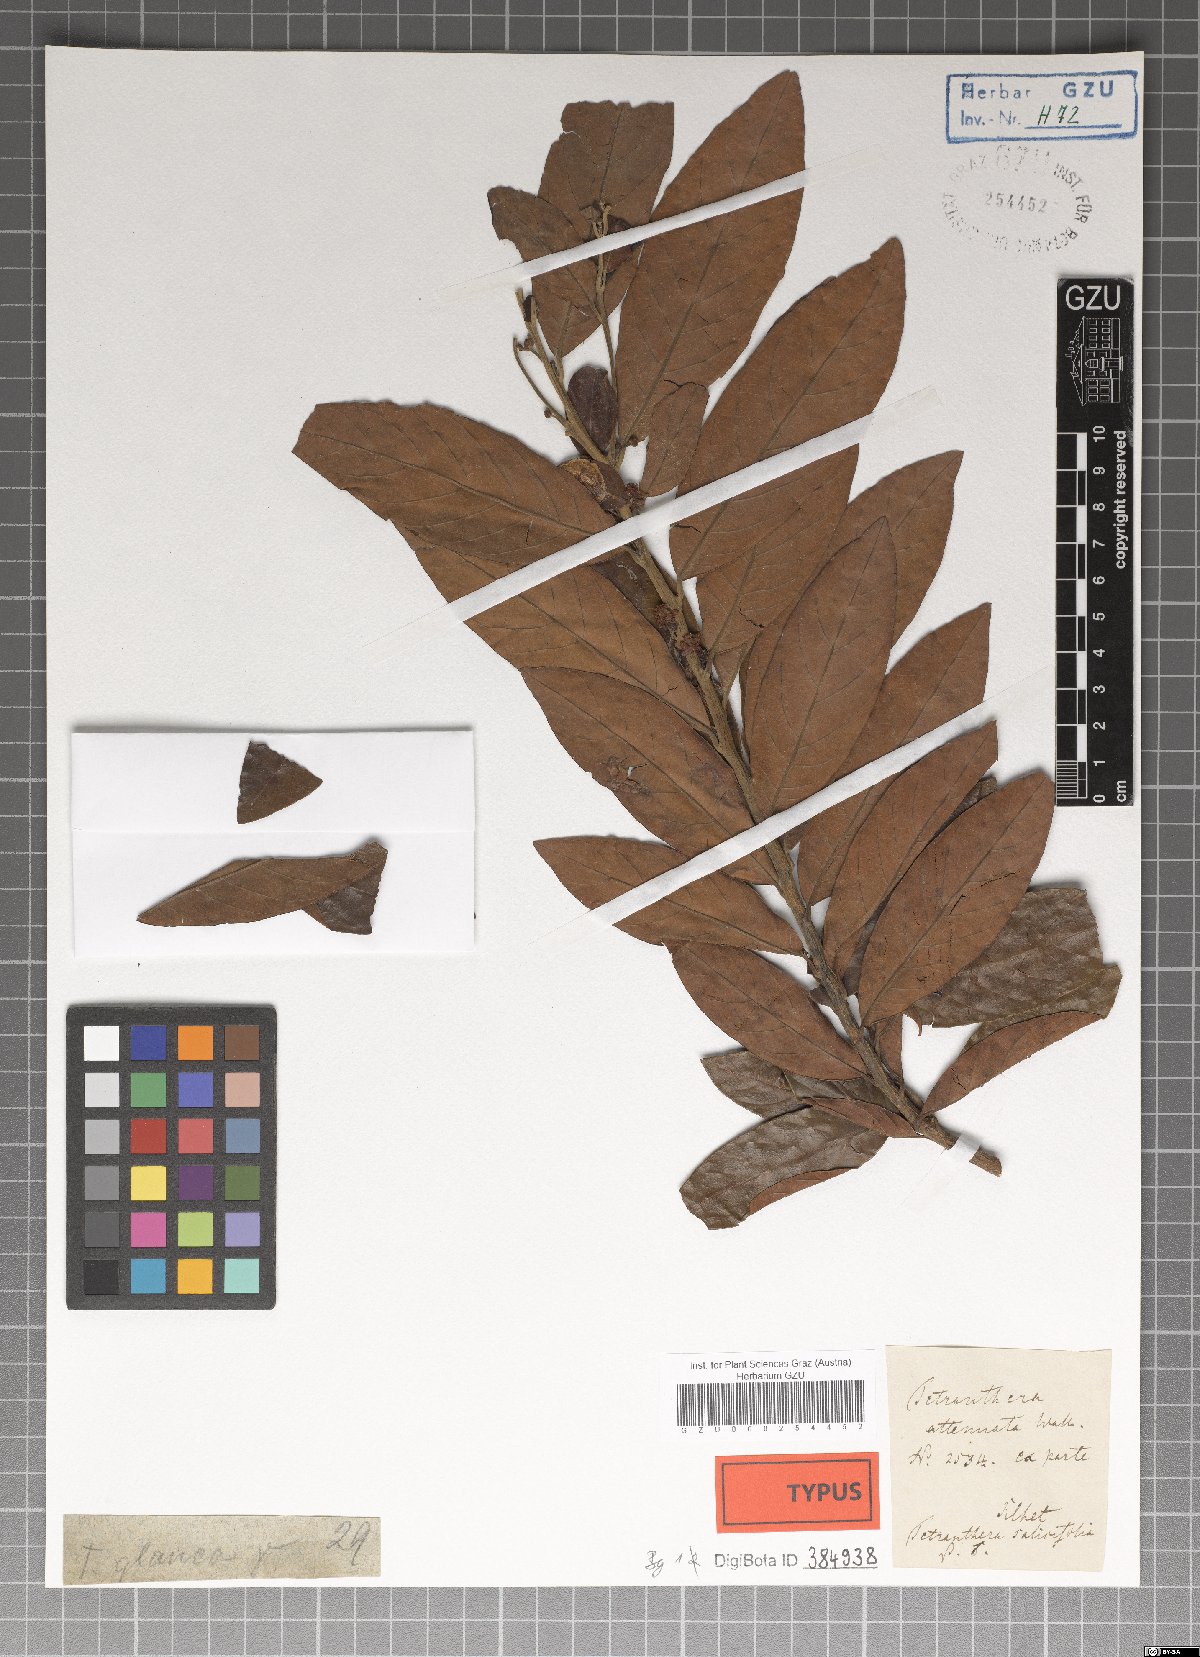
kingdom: Plantae
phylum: Tracheophyta
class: Magnoliopsida
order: Laurales
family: Lauraceae
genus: Litsea
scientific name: Litsea salicifolia
